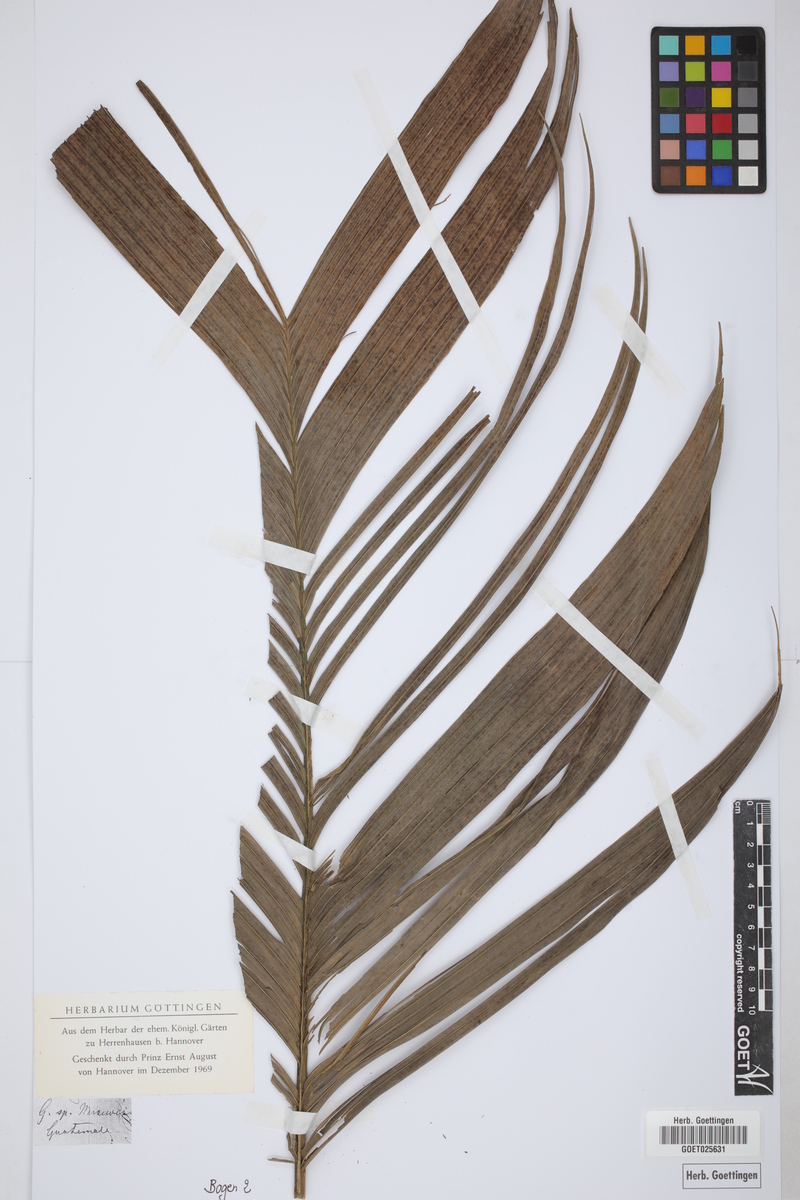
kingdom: Plantae
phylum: Tracheophyta
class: Liliopsida
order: Arecales
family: Arecaceae
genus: Geonoma
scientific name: Geonoma
